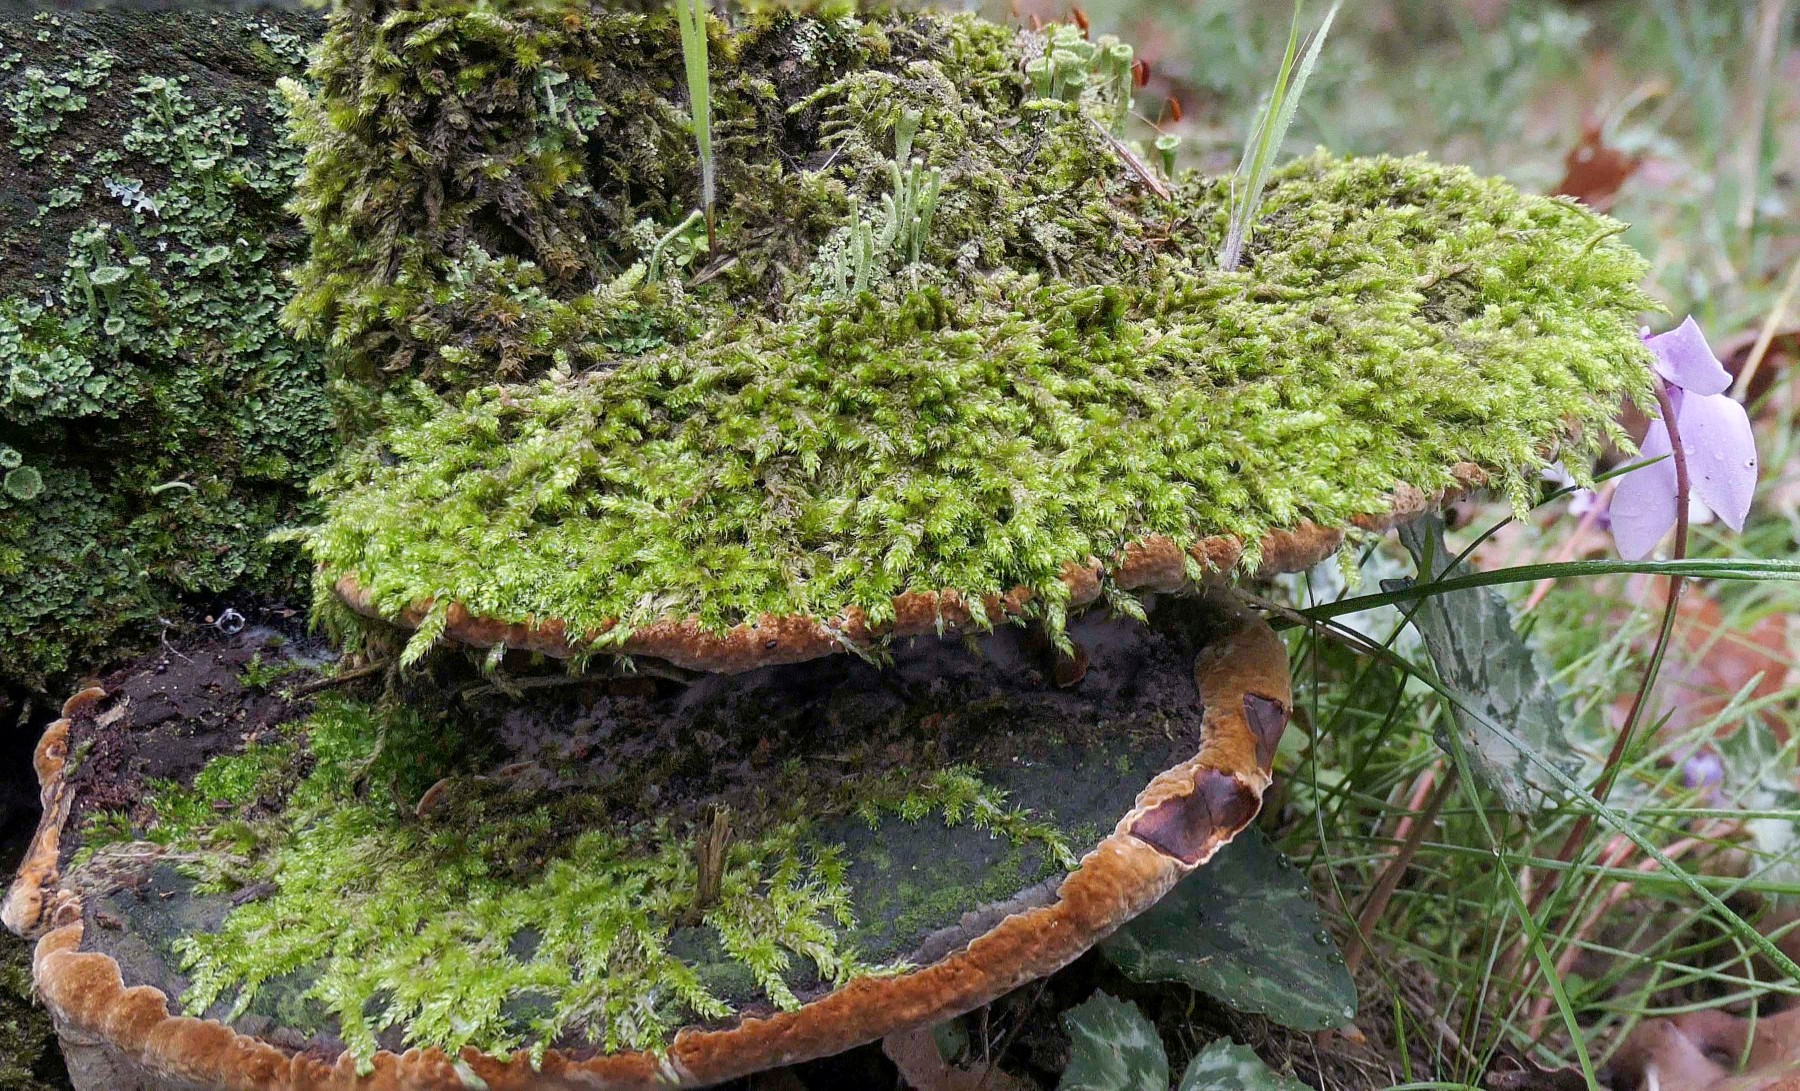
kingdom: Fungi
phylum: Basidiomycota
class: Agaricomycetes
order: Hymenochaetales
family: Hymenochaetaceae
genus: Fuscoporia
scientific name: Fuscoporia torulosa
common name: Tufted bracket
